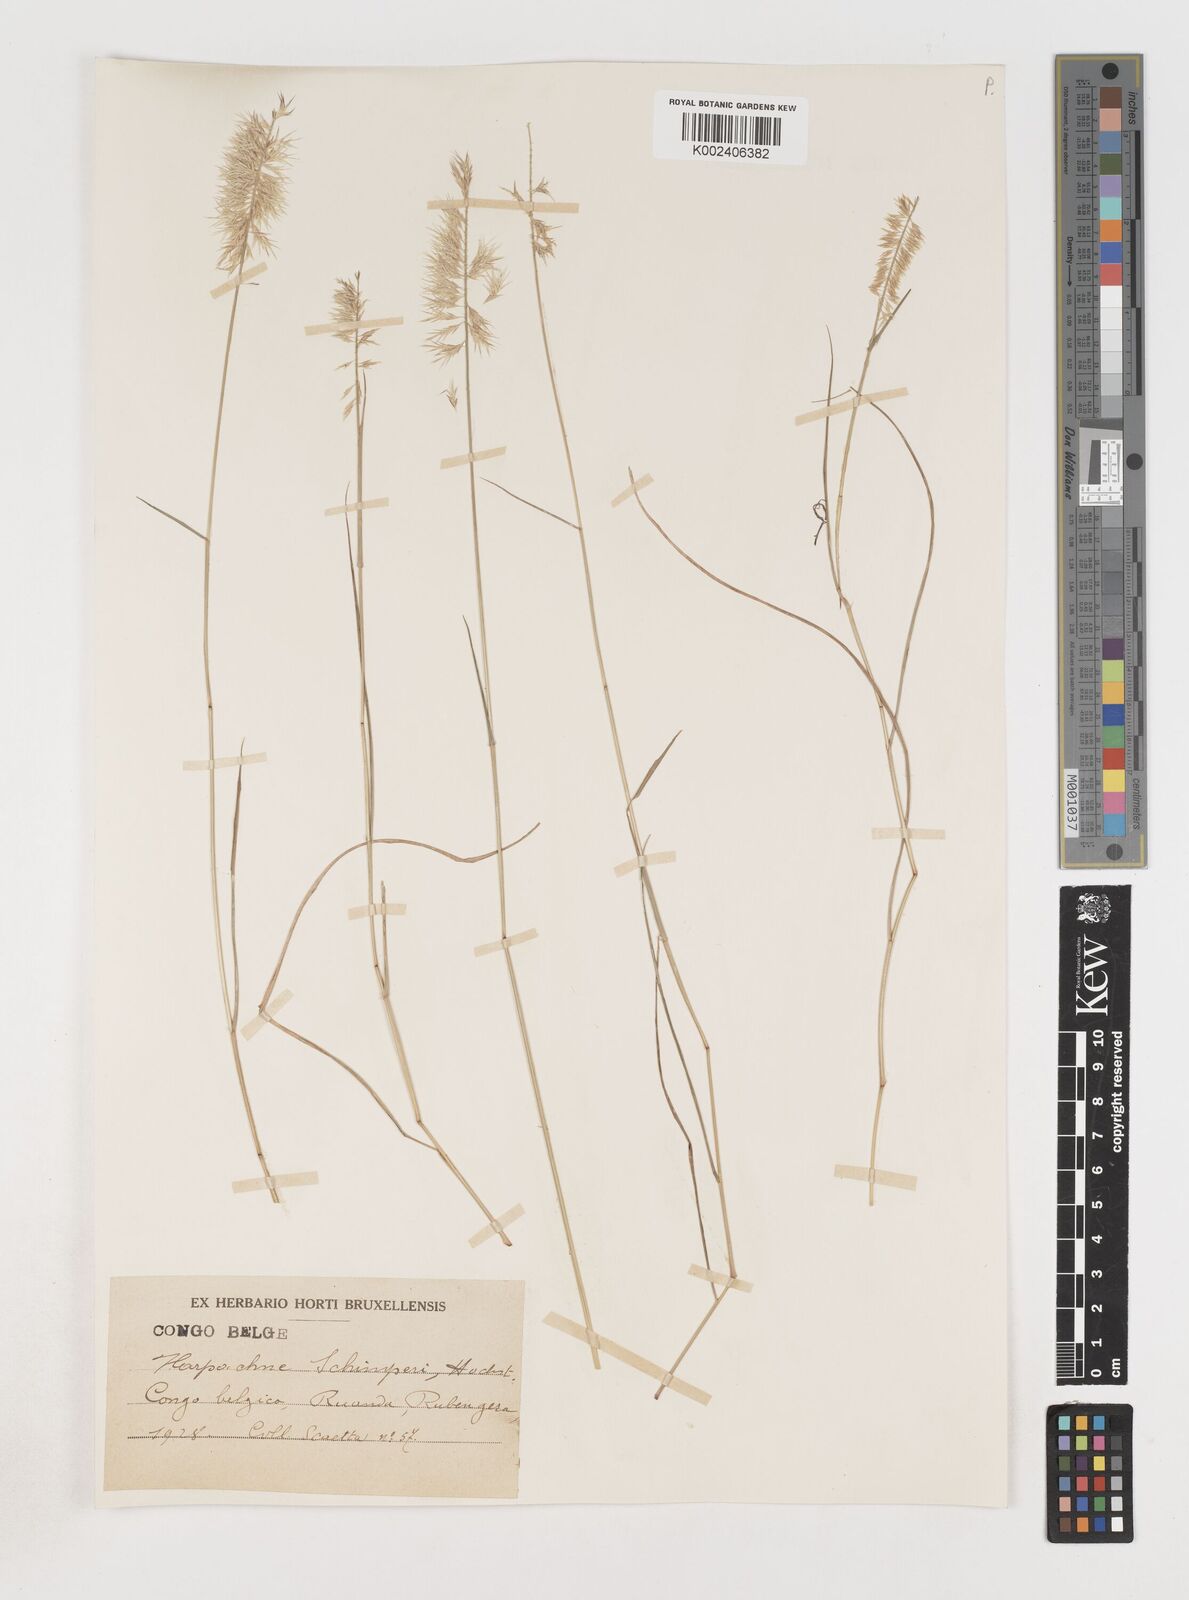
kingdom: Plantae
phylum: Tracheophyta
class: Liliopsida
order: Poales
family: Poaceae
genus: Harpachne
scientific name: Harpachne schimperi
